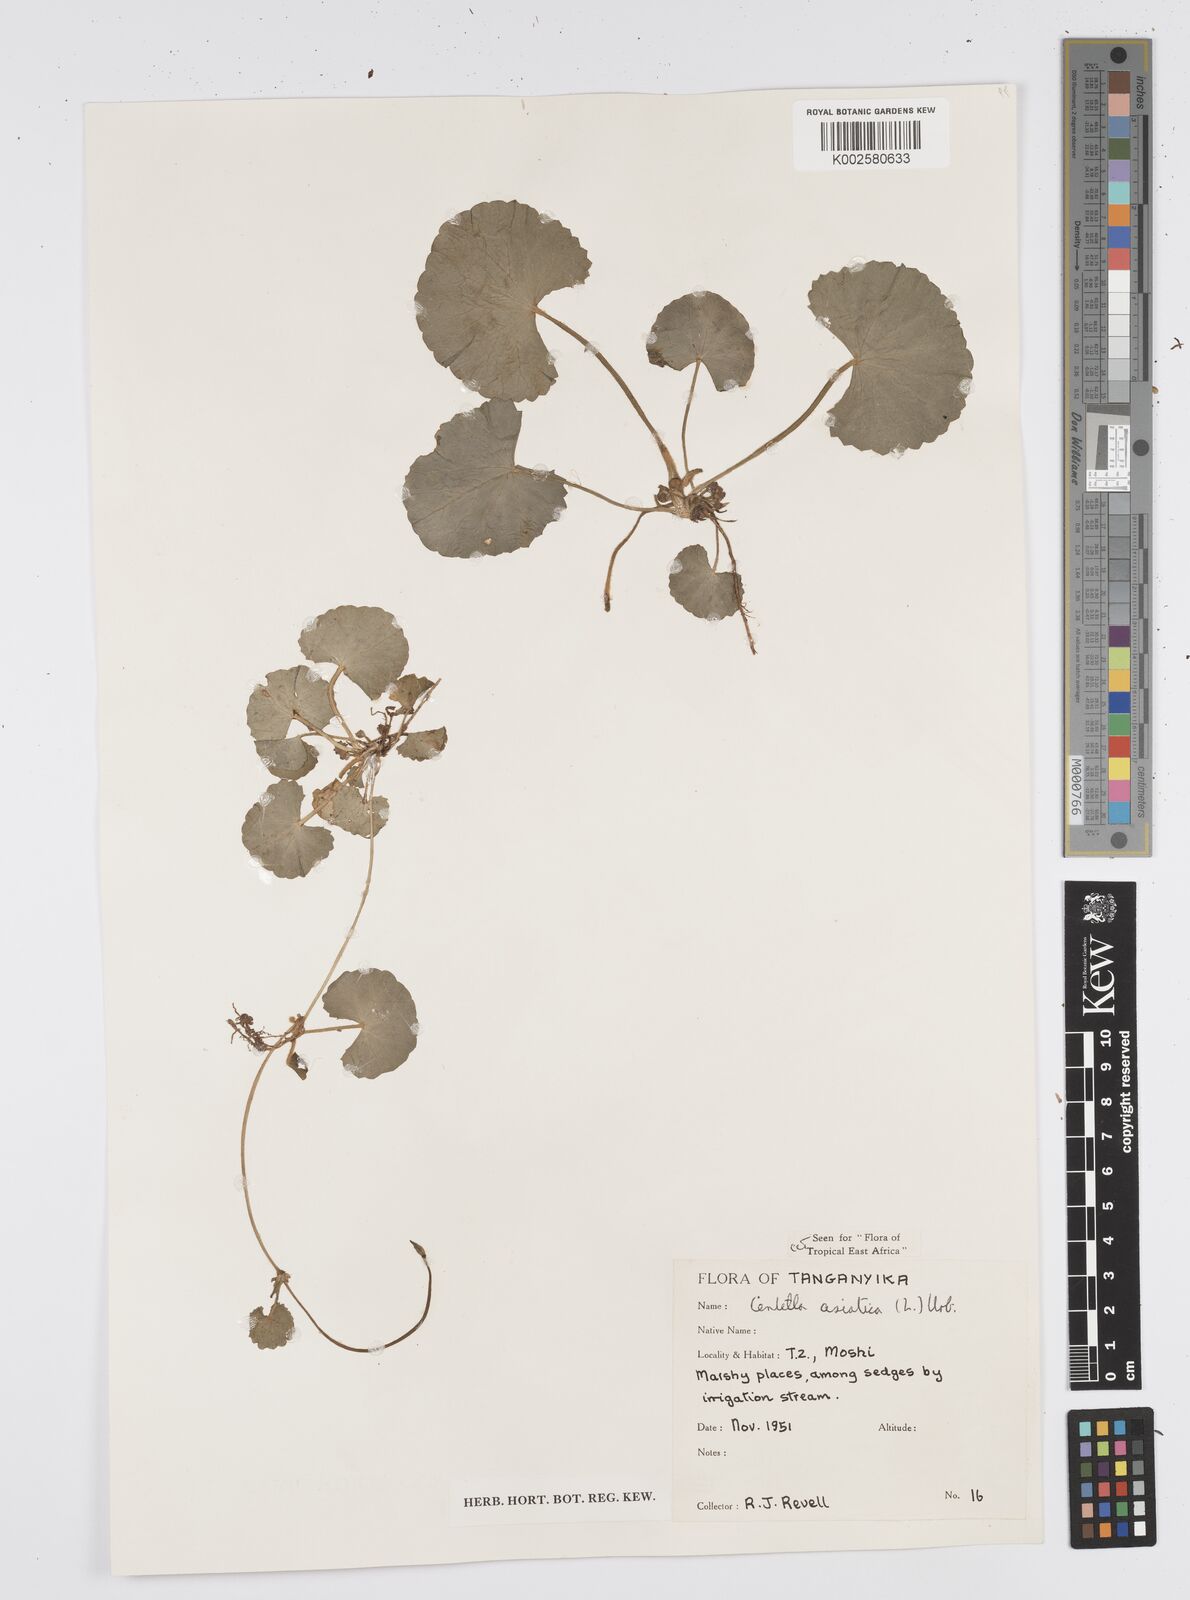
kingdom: Plantae
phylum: Tracheophyta
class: Magnoliopsida
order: Apiales
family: Apiaceae
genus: Centella
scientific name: Centella asiatica
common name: Spadeleaf
